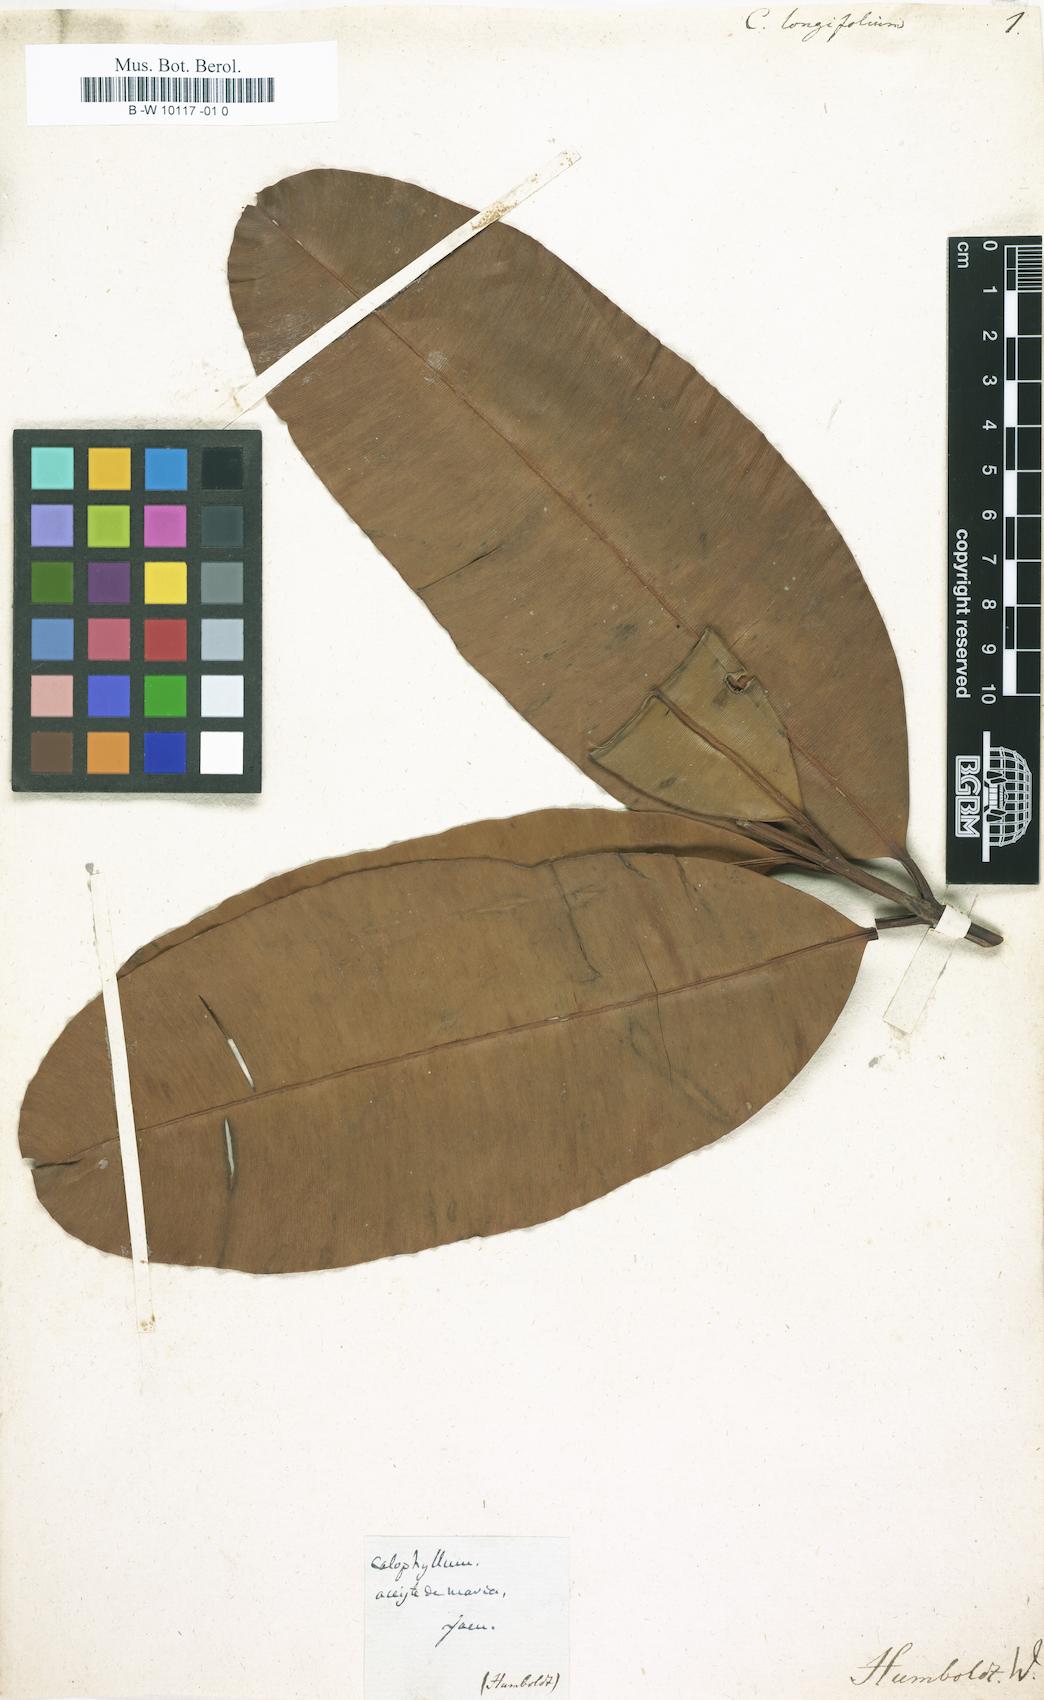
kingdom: Plantae
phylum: Tracheophyta
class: Magnoliopsida
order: Malpighiales
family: Calophyllaceae
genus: Calophyllum
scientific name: Calophyllum longifolium
